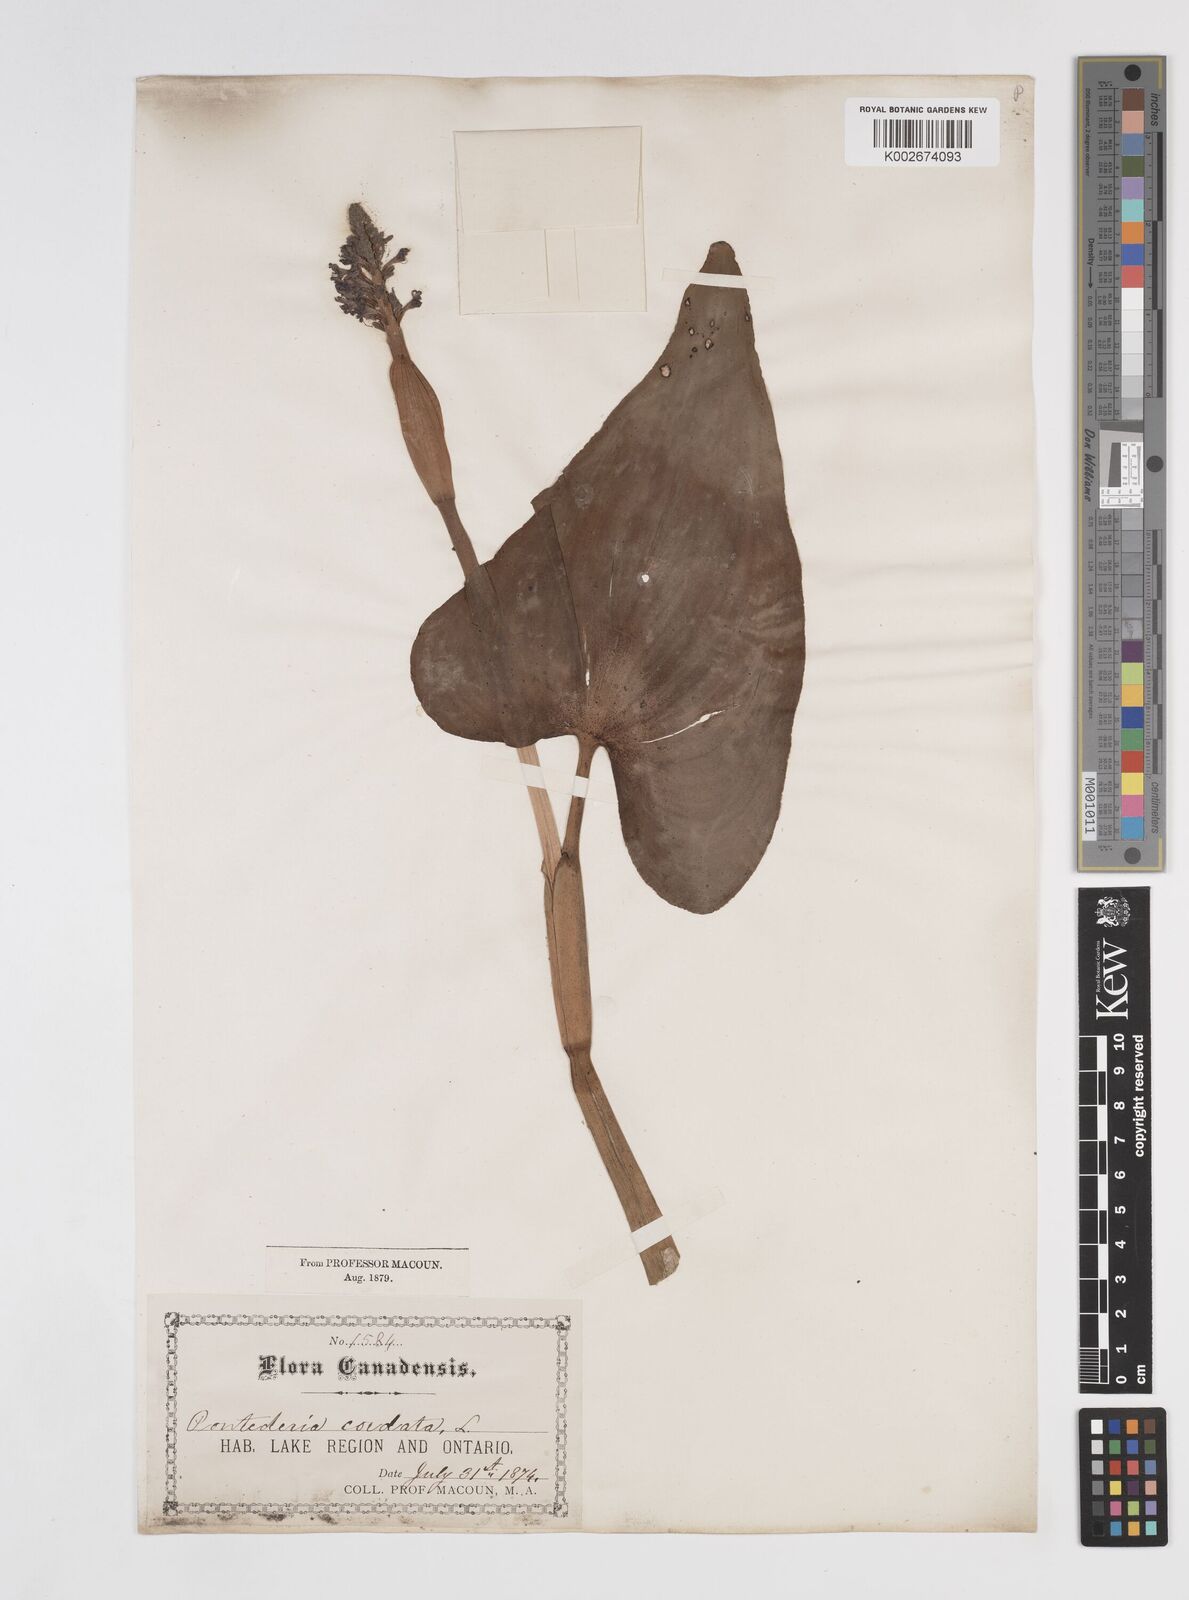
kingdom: Plantae
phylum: Tracheophyta
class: Liliopsida
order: Commelinales
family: Pontederiaceae
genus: Pontederia
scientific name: Pontederia cordata
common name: Pickerelweed
